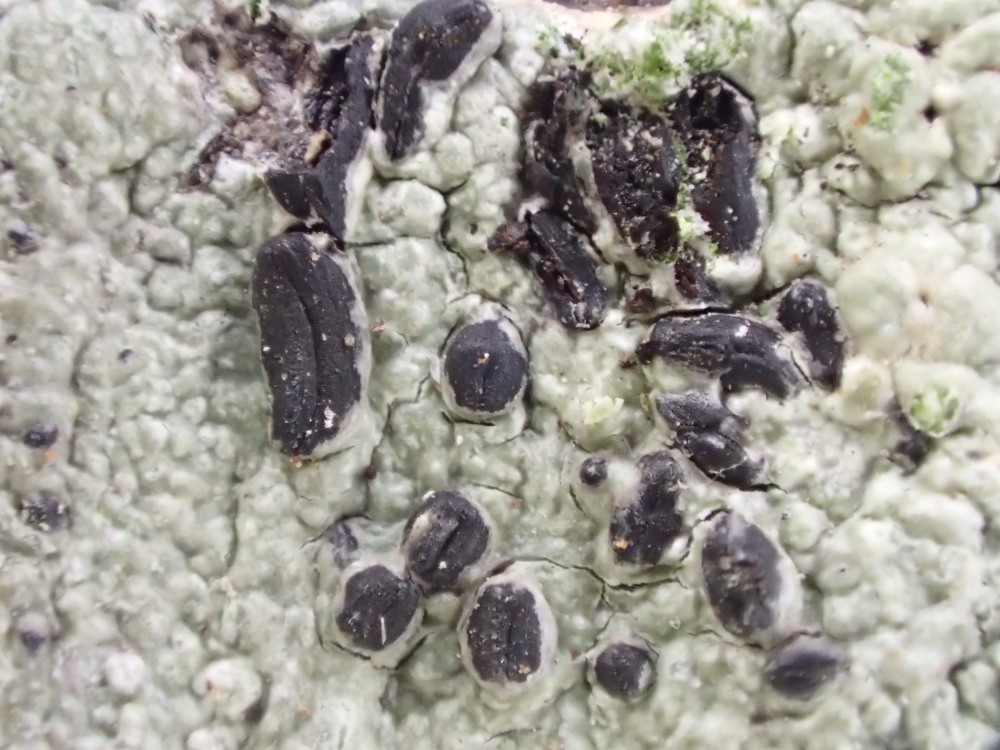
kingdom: Fungi
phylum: Ascomycota
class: Dothideomycetes
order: Hysteriales
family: Hysteriaceae
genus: Hysterium
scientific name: Hysterium pulicare
